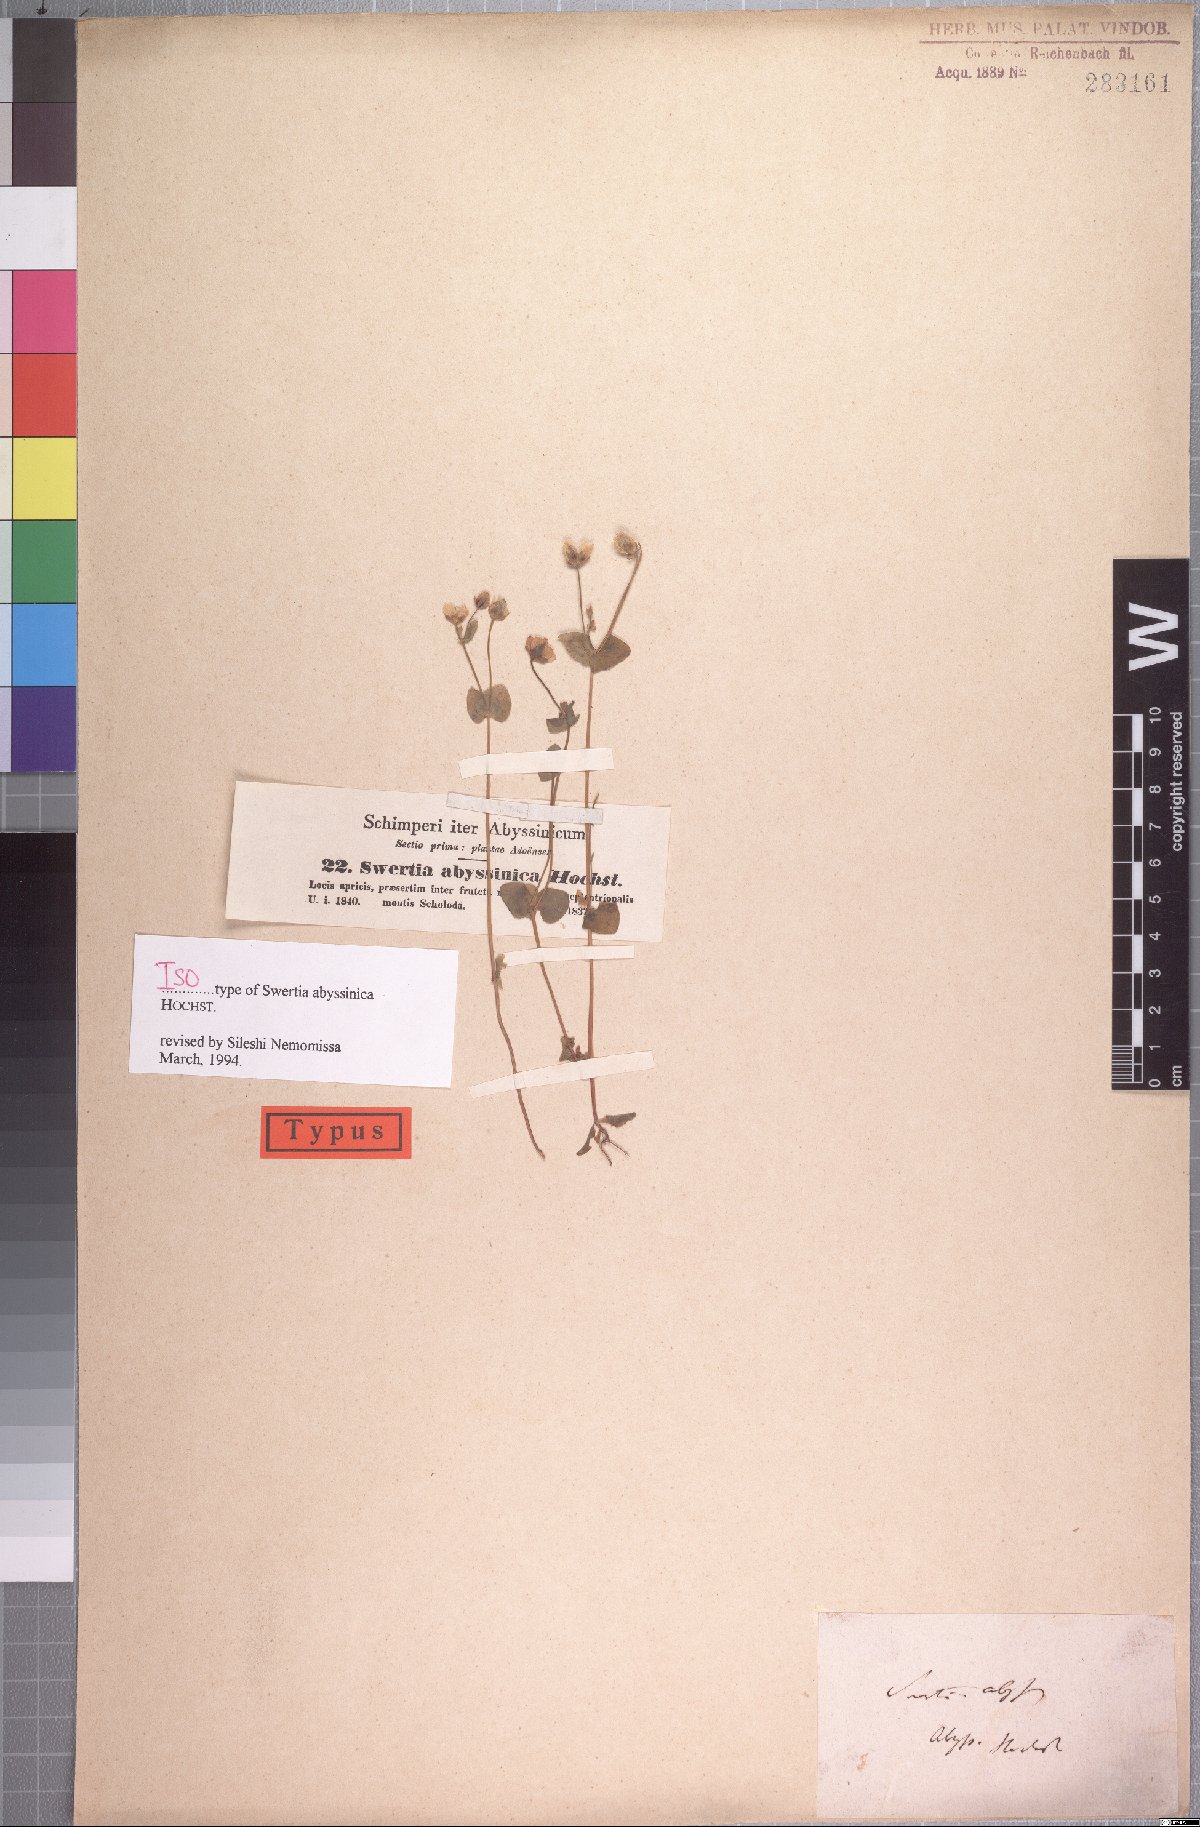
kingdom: Plantae
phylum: Tracheophyta
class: Magnoliopsida
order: Gentianales
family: Gentianaceae
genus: Swertia
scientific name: Swertia abyssinica
